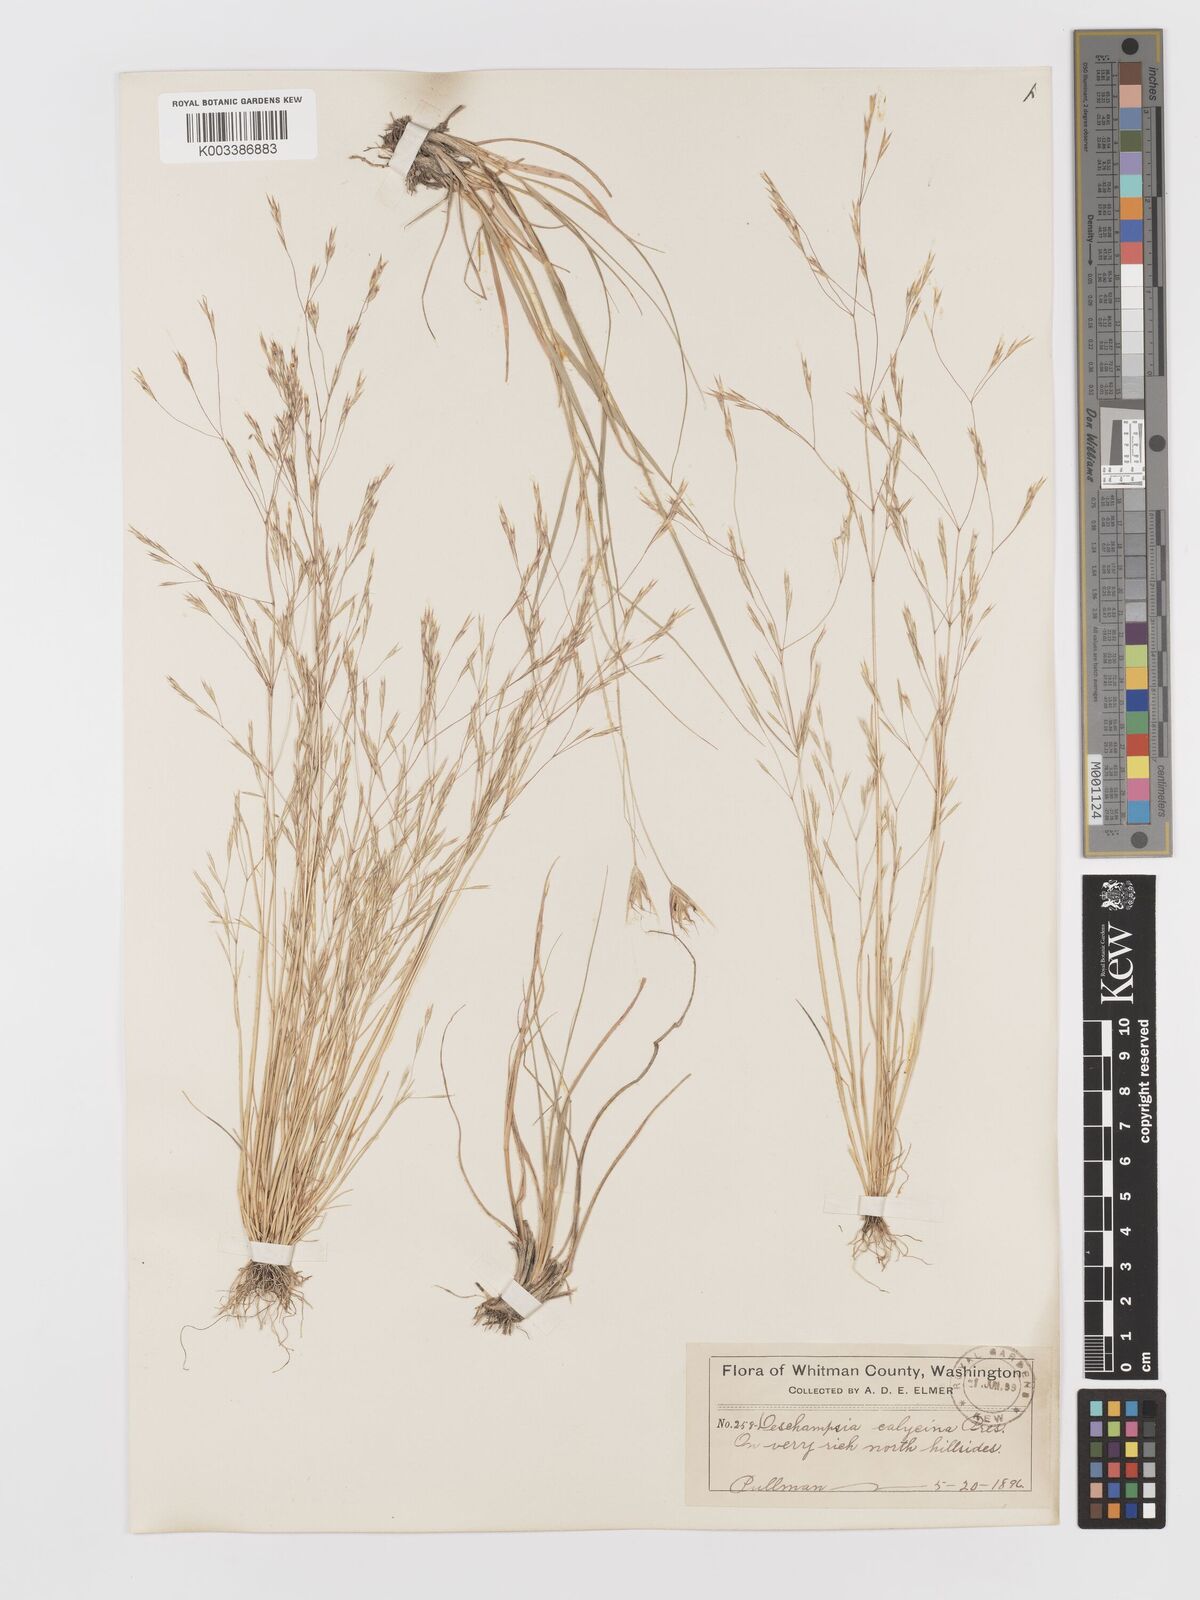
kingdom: Plantae
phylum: Tracheophyta
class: Liliopsida
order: Poales
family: Poaceae
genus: Deschampsia
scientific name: Deschampsia danthonioides
